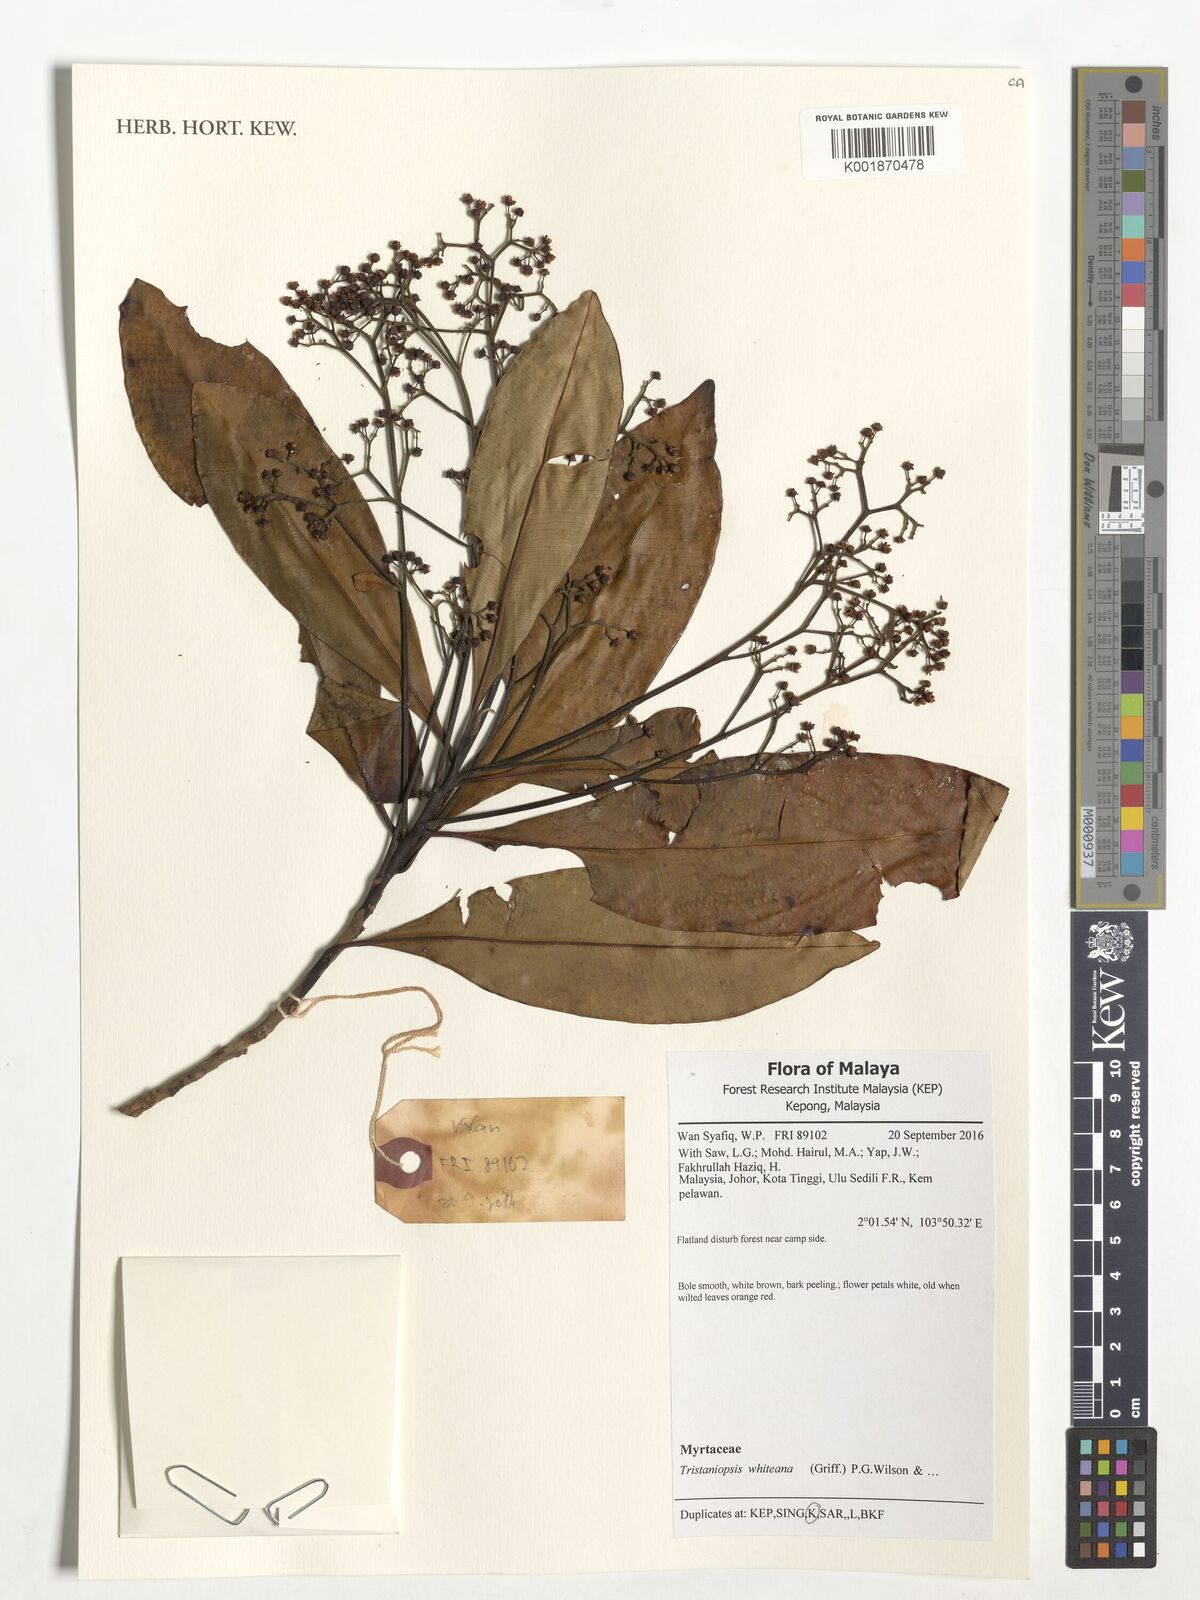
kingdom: Plantae
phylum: Tracheophyta
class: Magnoliopsida
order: Myrtales
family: Myrtaceae
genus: Tristaniopsis
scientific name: Tristaniopsis whiteana
